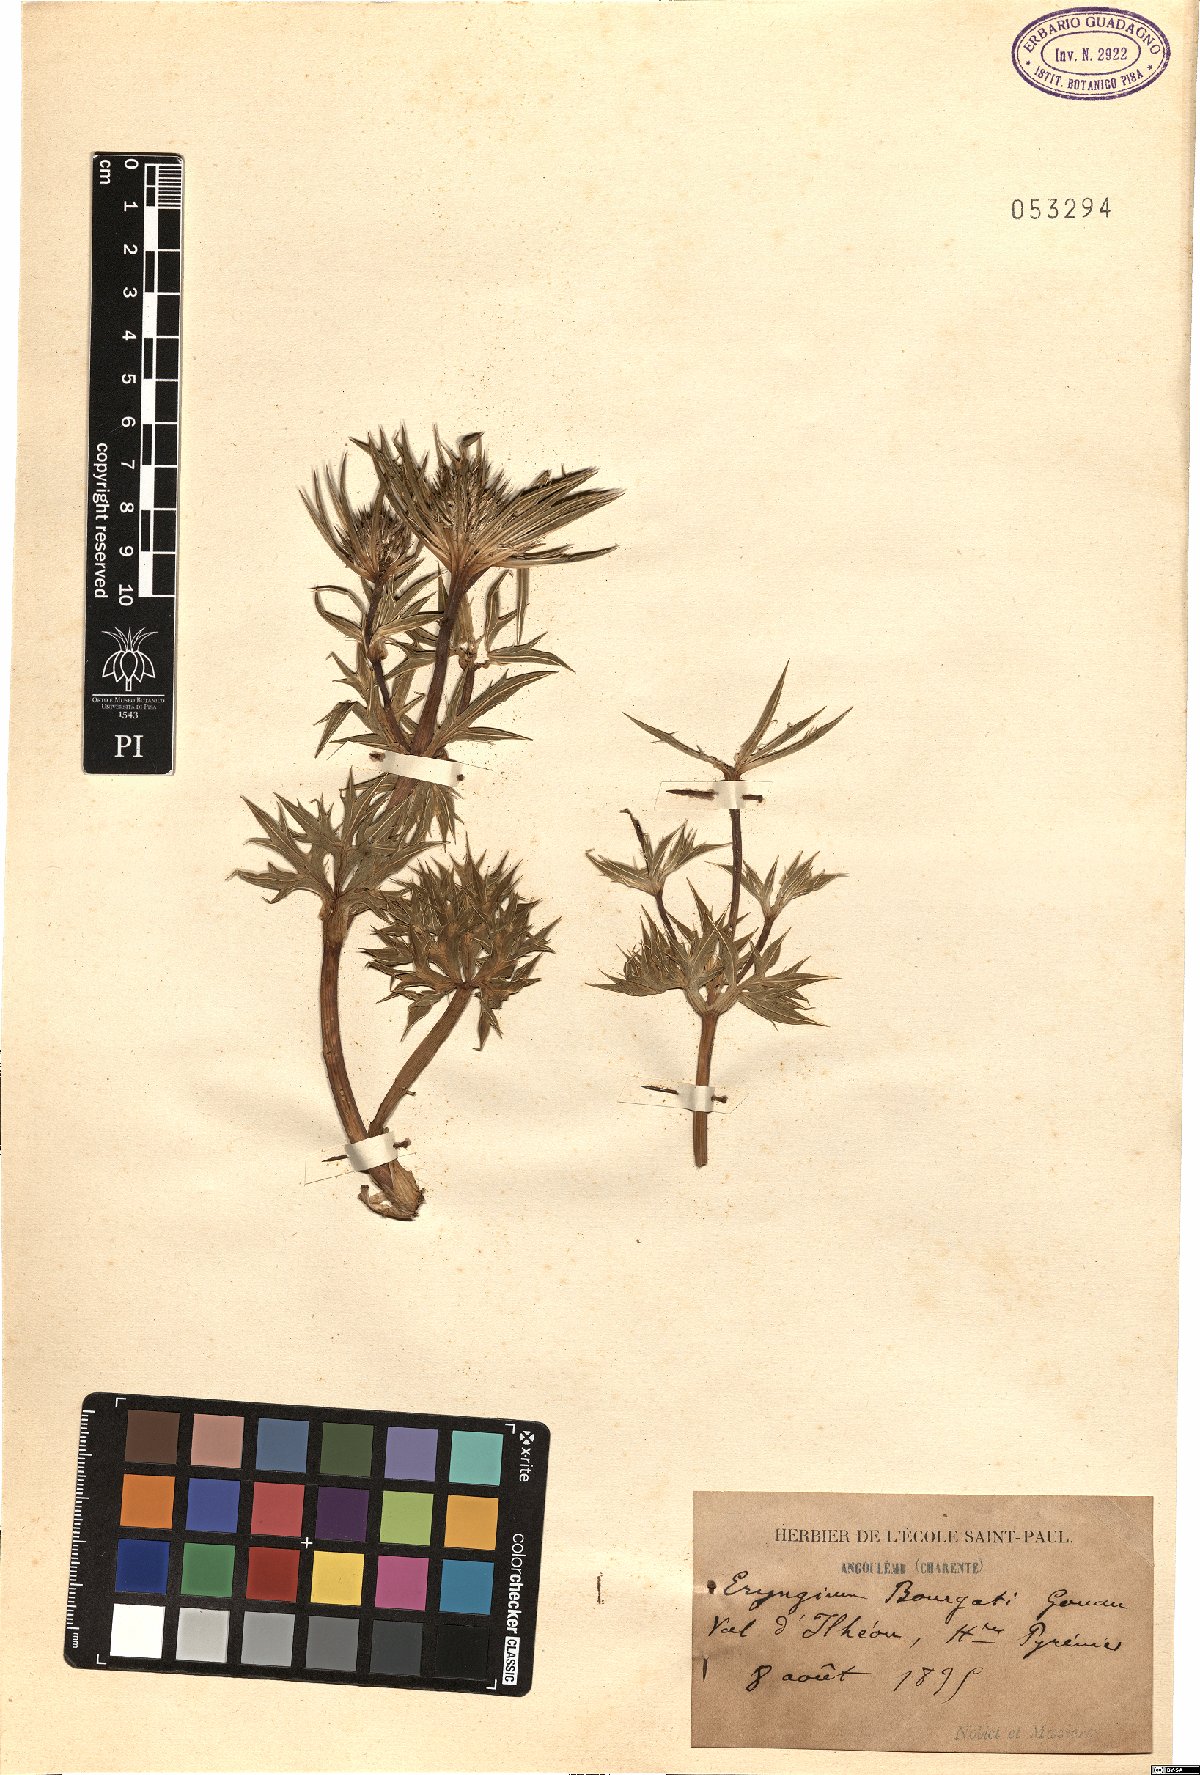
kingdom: Plantae
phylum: Tracheophyta
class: Magnoliopsida
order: Apiales
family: Apiaceae
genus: Eryngium
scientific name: Eryngium bourgatii
